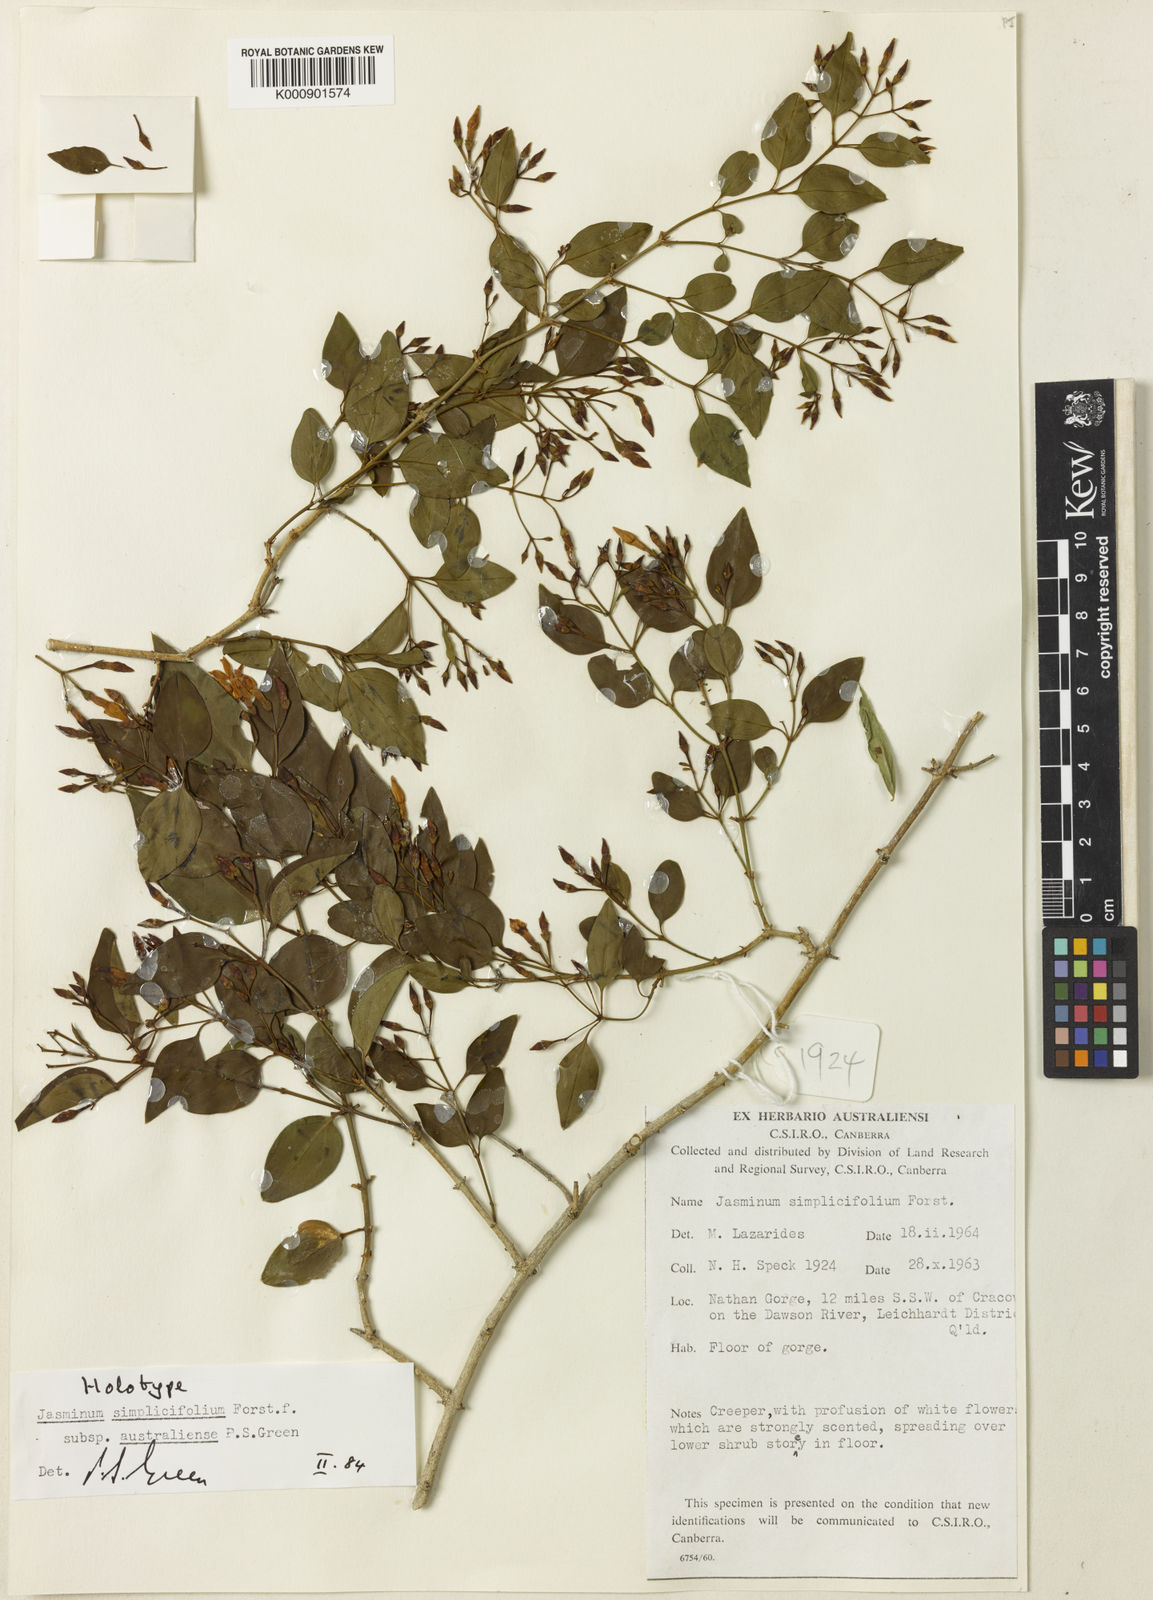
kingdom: Plantae
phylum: Tracheophyta
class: Magnoliopsida
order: Lamiales
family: Oleaceae
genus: Jasminum
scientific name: Jasminum simplicifolium
